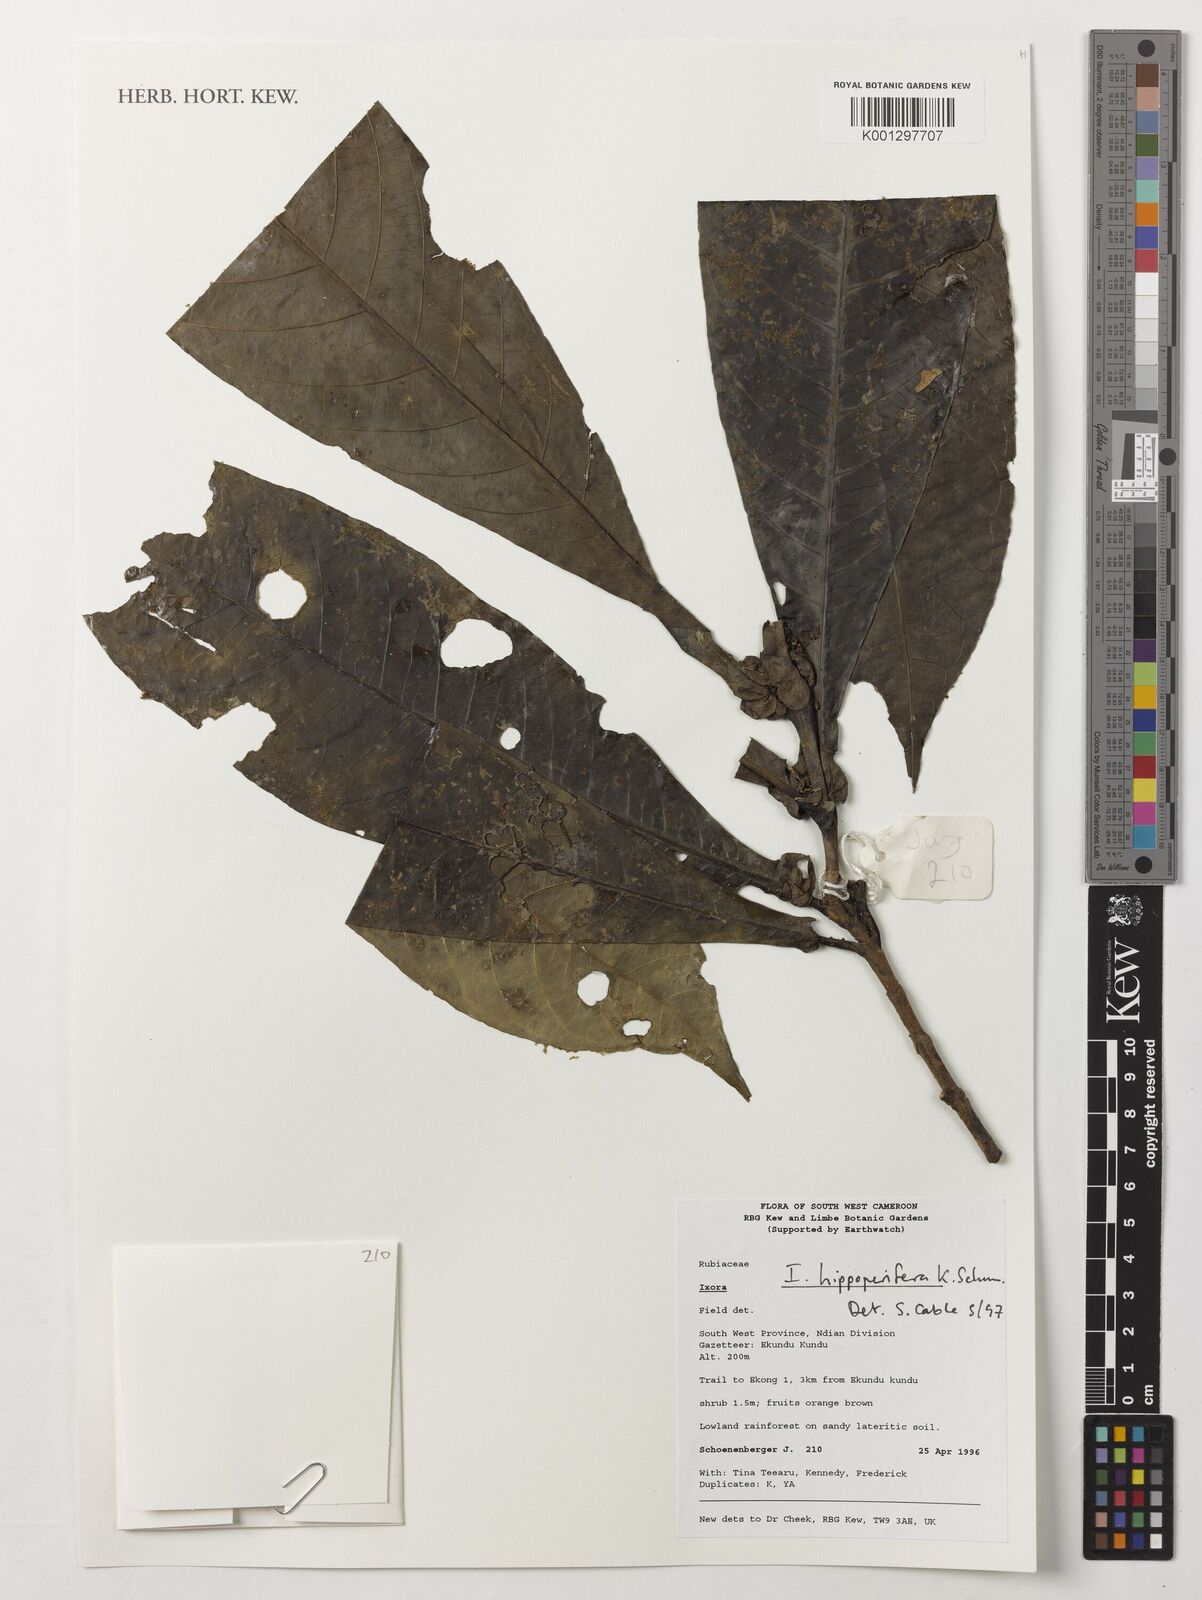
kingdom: Plantae
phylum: Tracheophyta
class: Magnoliopsida
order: Gentianales
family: Rubiaceae
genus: Ixora
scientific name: Ixora hippoperifera
